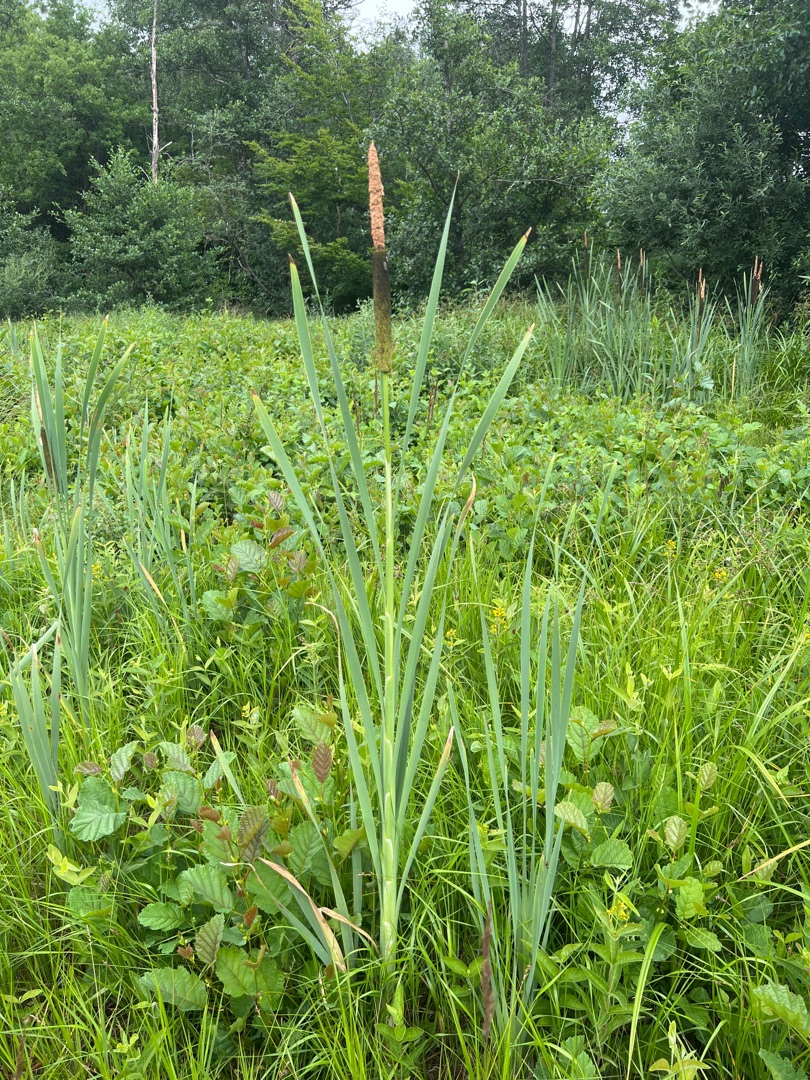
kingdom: Plantae
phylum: Tracheophyta
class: Liliopsida
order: Poales
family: Typhaceae
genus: Typha
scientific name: Typha latifolia
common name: Bredbladet dunhammer
